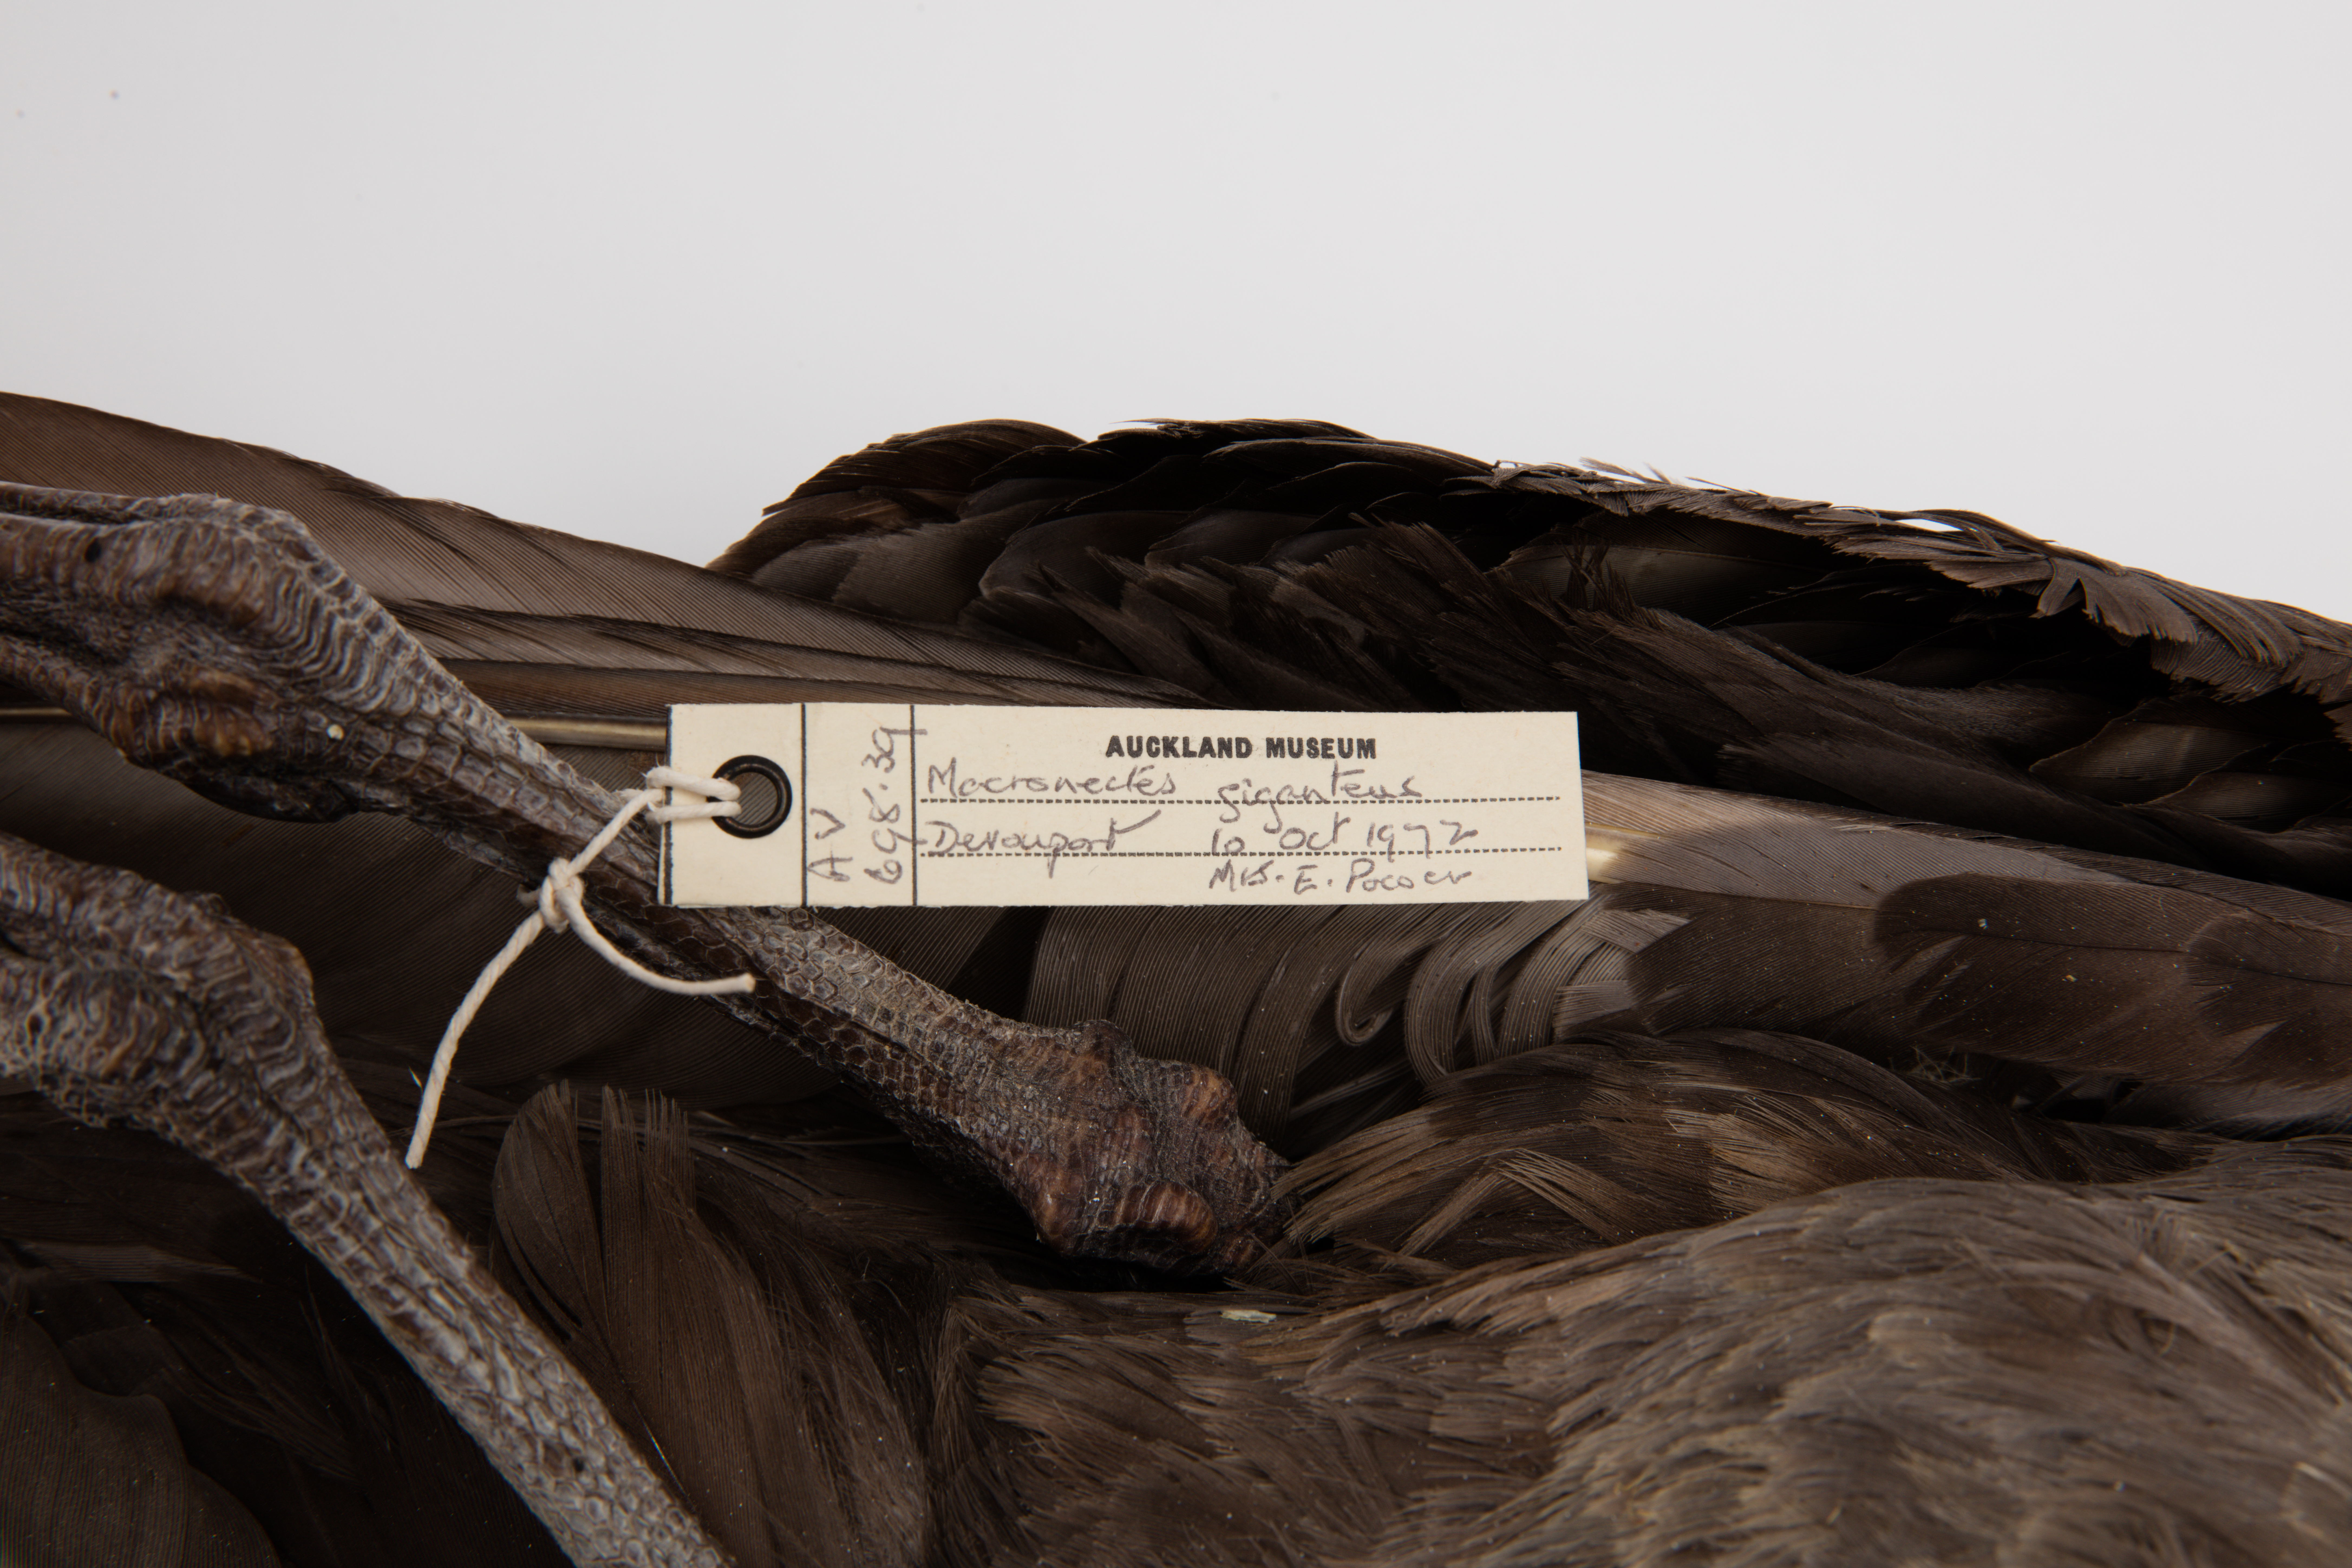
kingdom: Animalia
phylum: Chordata
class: Aves
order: Procellariiformes
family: Procellariidae
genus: Macronectes
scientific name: Macronectes halli
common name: Northern giant petrel
